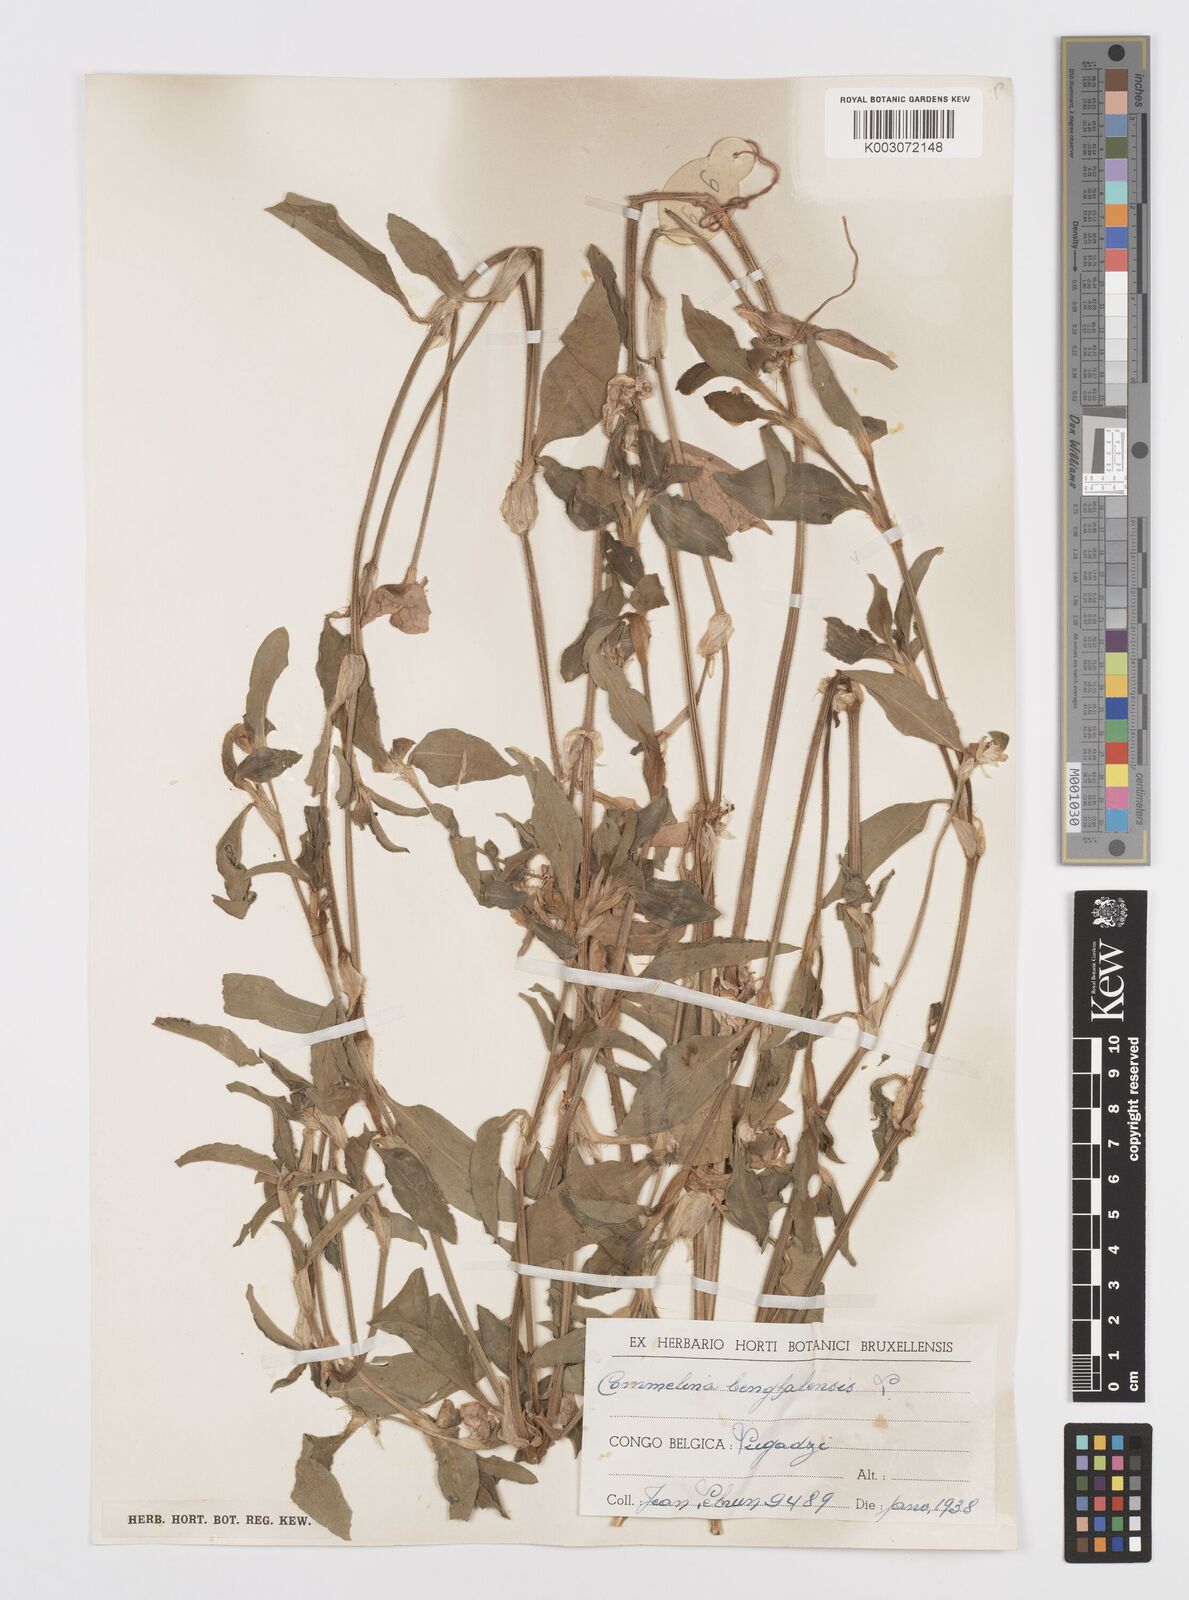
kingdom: Plantae
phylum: Tracheophyta
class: Liliopsida
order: Commelinales
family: Commelinaceae
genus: Commelina
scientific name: Commelina benghalensis
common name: Jio
